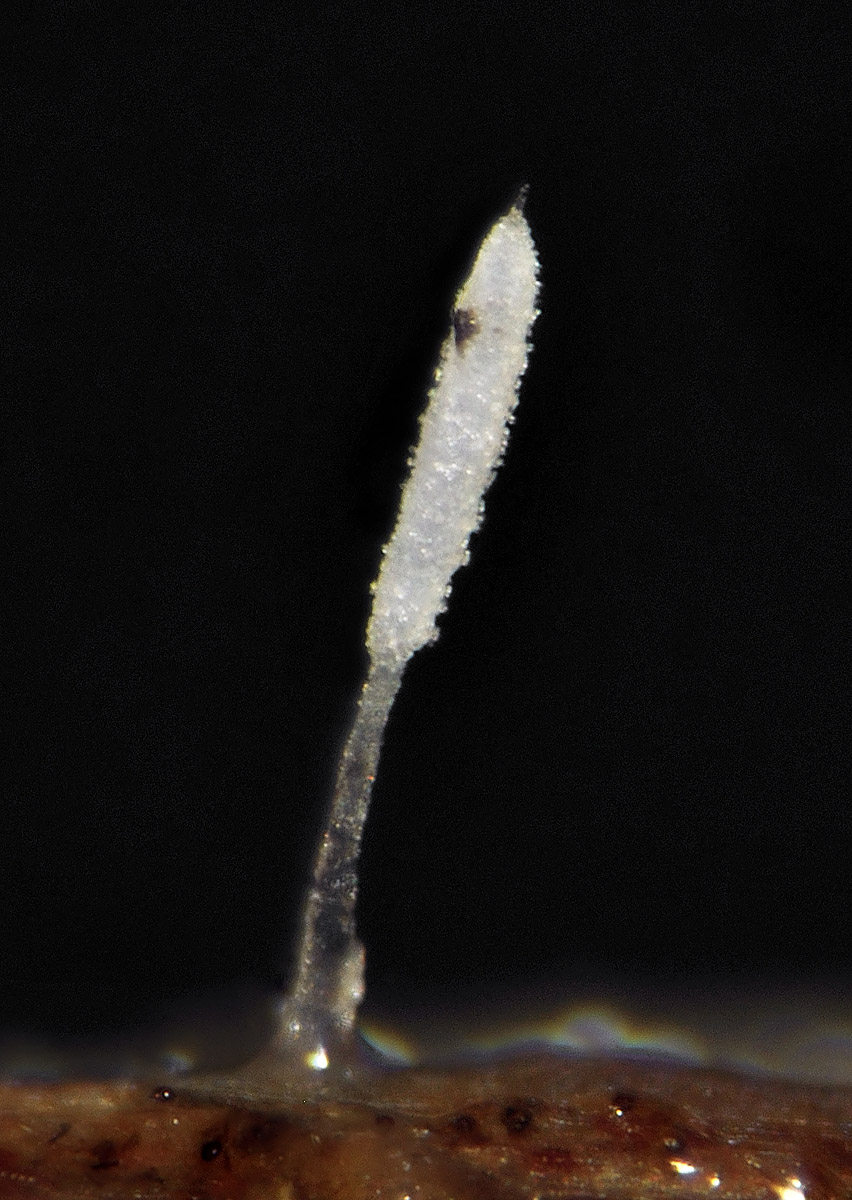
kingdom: Fungi
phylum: Basidiomycota
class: Agaricomycetes
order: Gomphales
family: Gomphaceae
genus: Ceratellopsis
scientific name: Ceratellopsis acuminata
